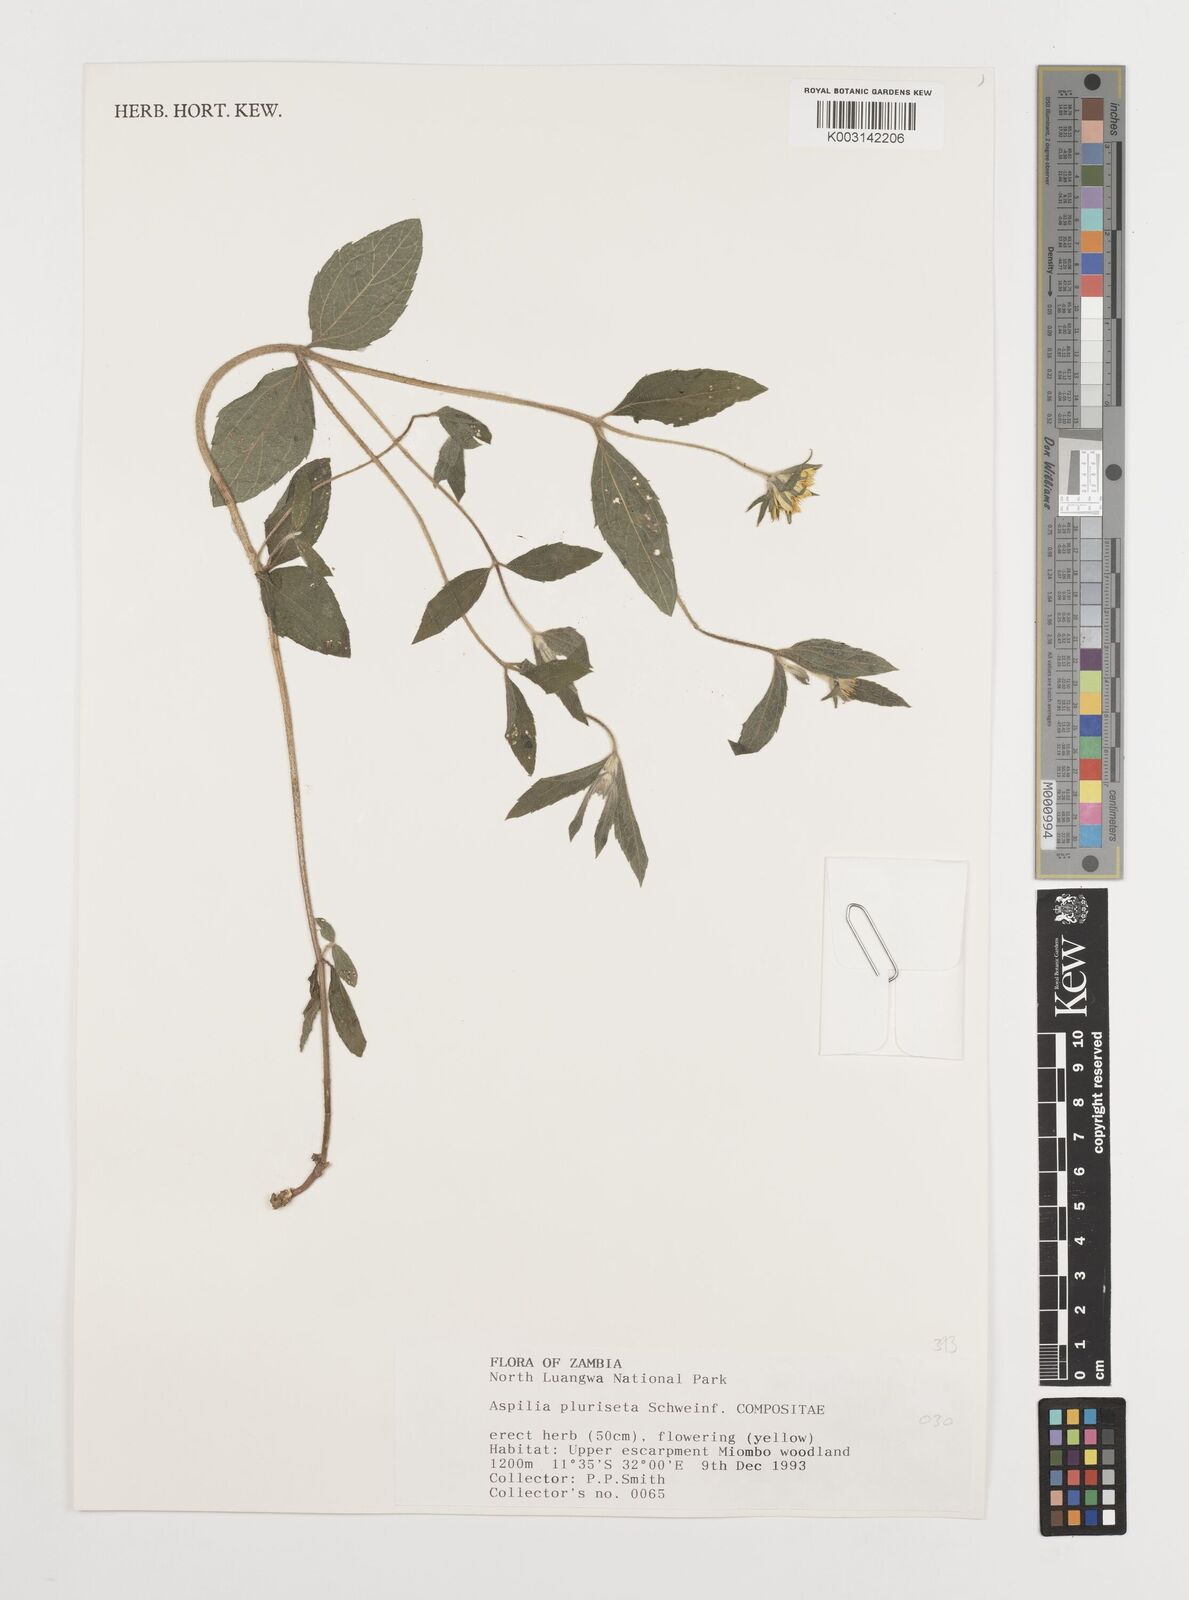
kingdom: Plantae
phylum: Tracheophyta
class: Magnoliopsida
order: Asterales
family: Asteraceae
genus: Aspilia
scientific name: Aspilia pluriseta
